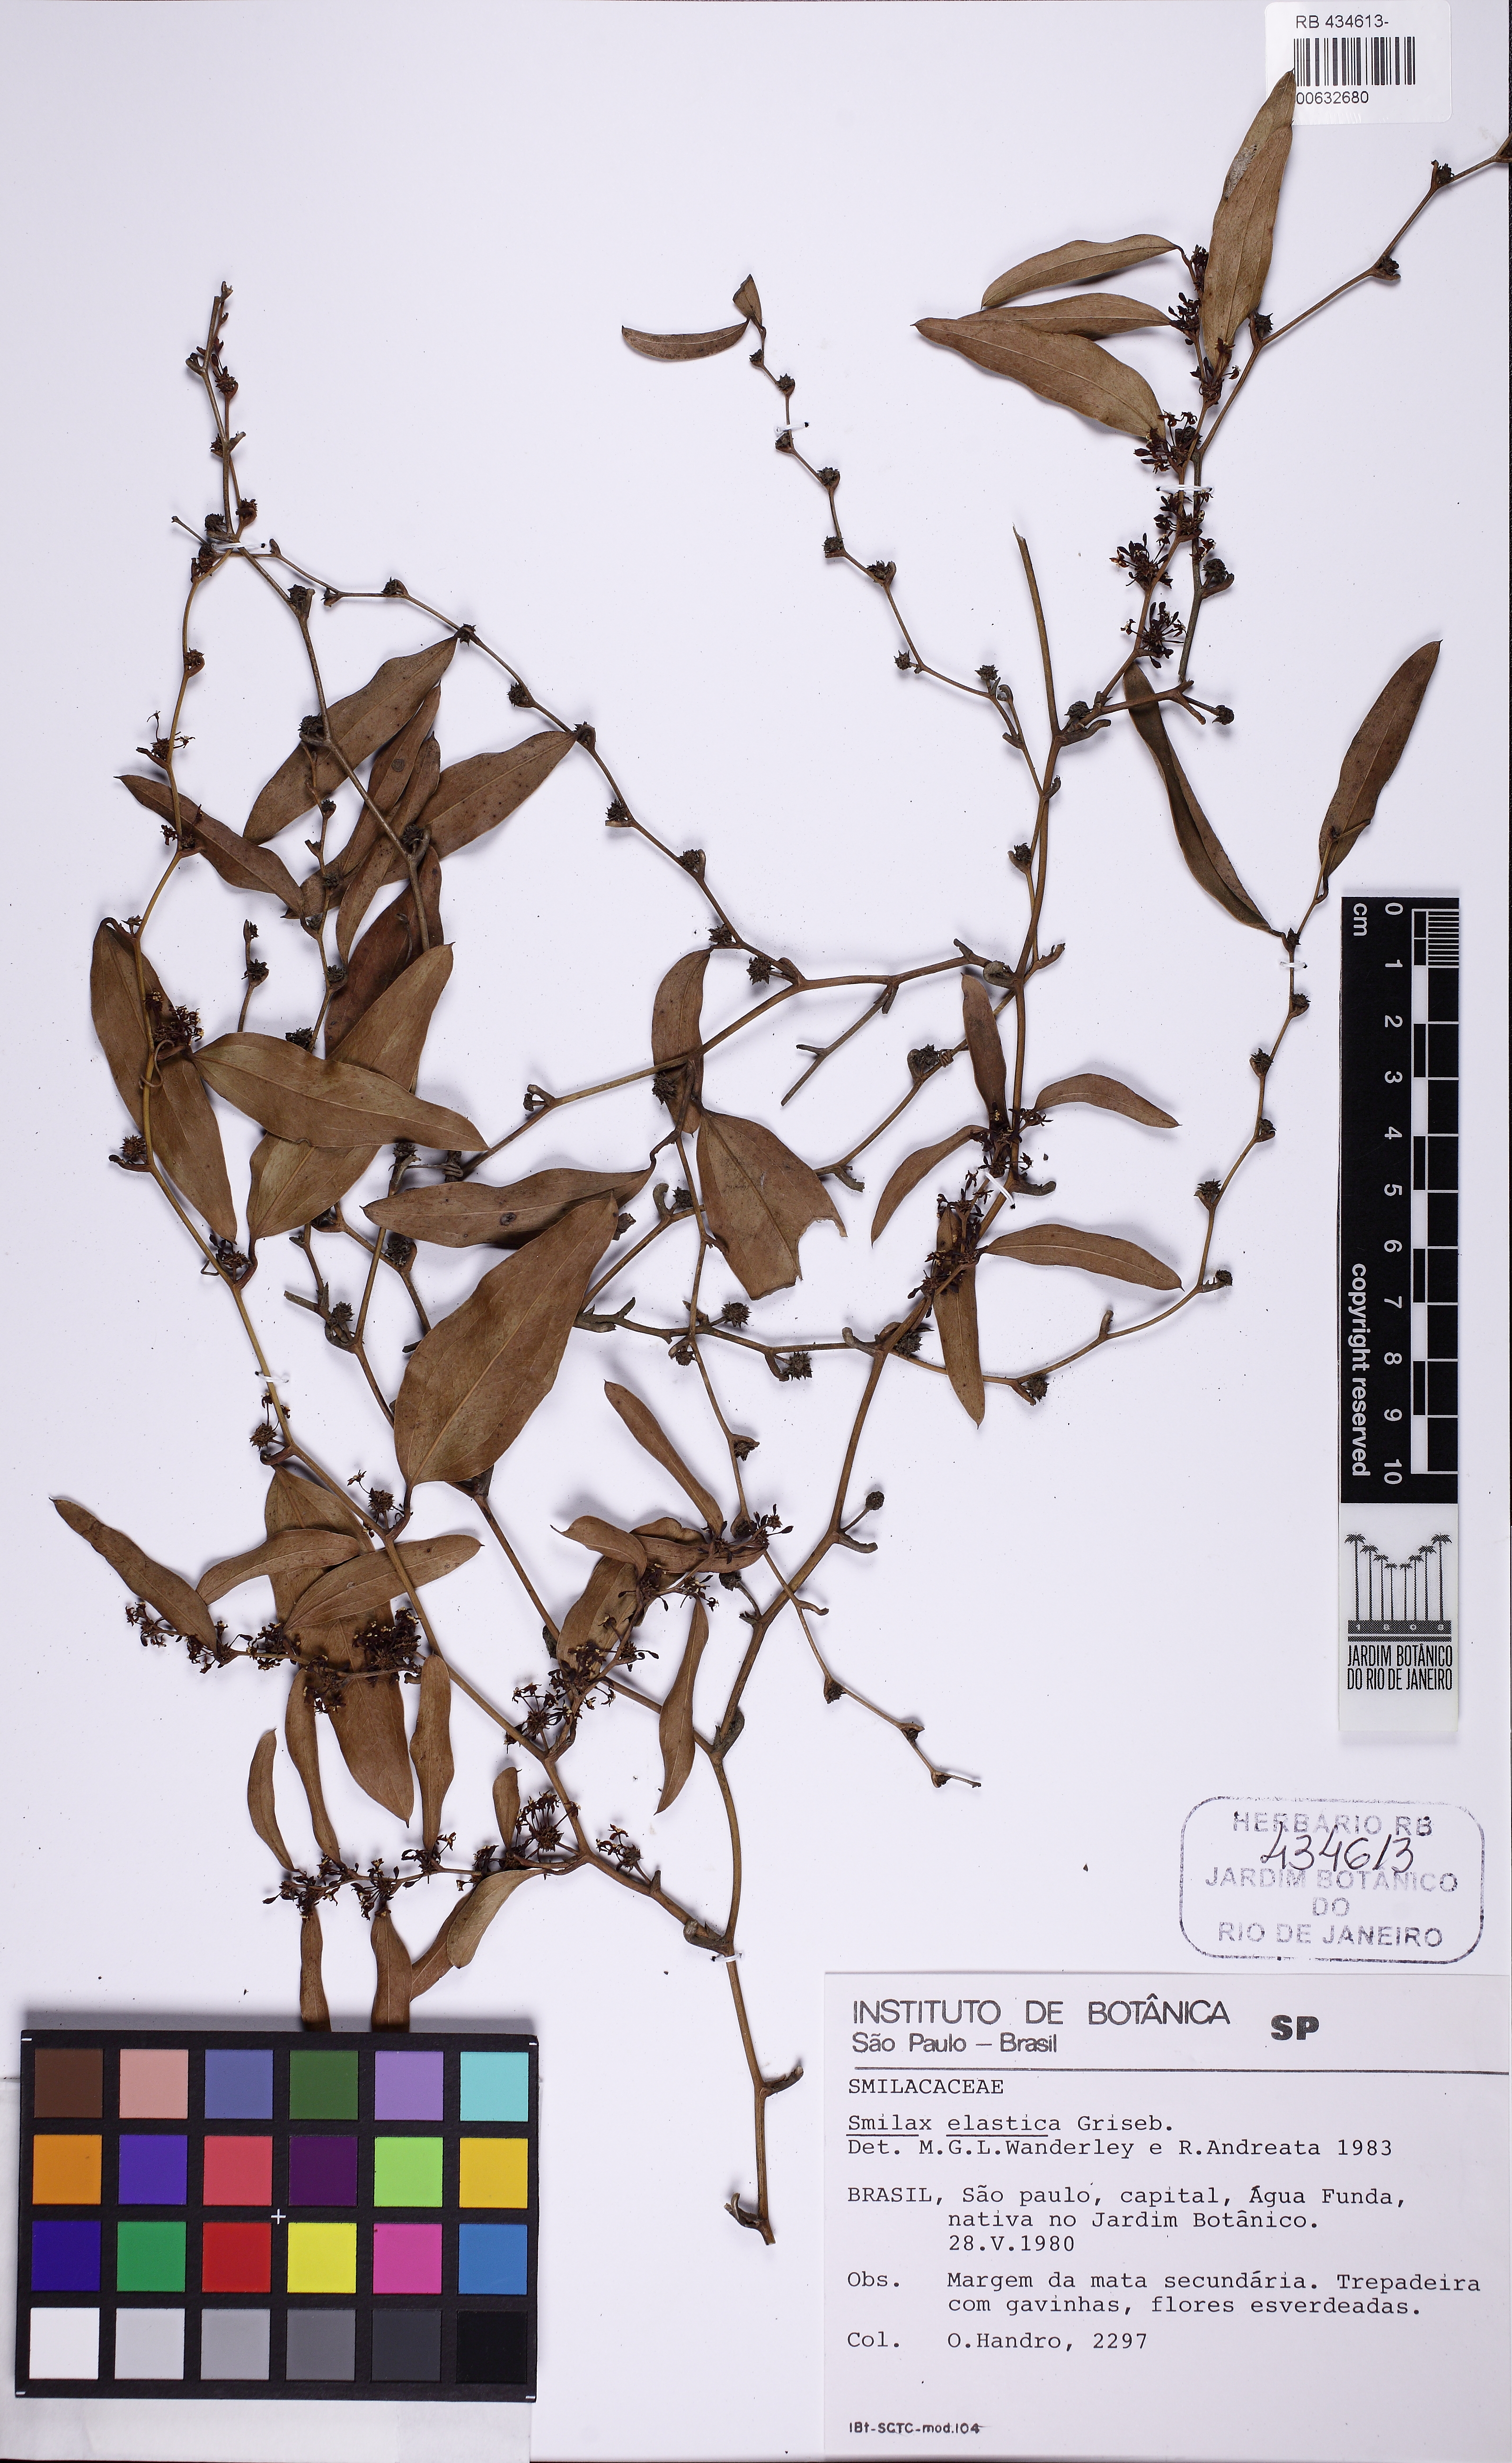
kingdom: Plantae
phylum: Tracheophyta
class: Liliopsida
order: Liliales
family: Smilacaceae
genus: Smilax
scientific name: Smilax elastica
